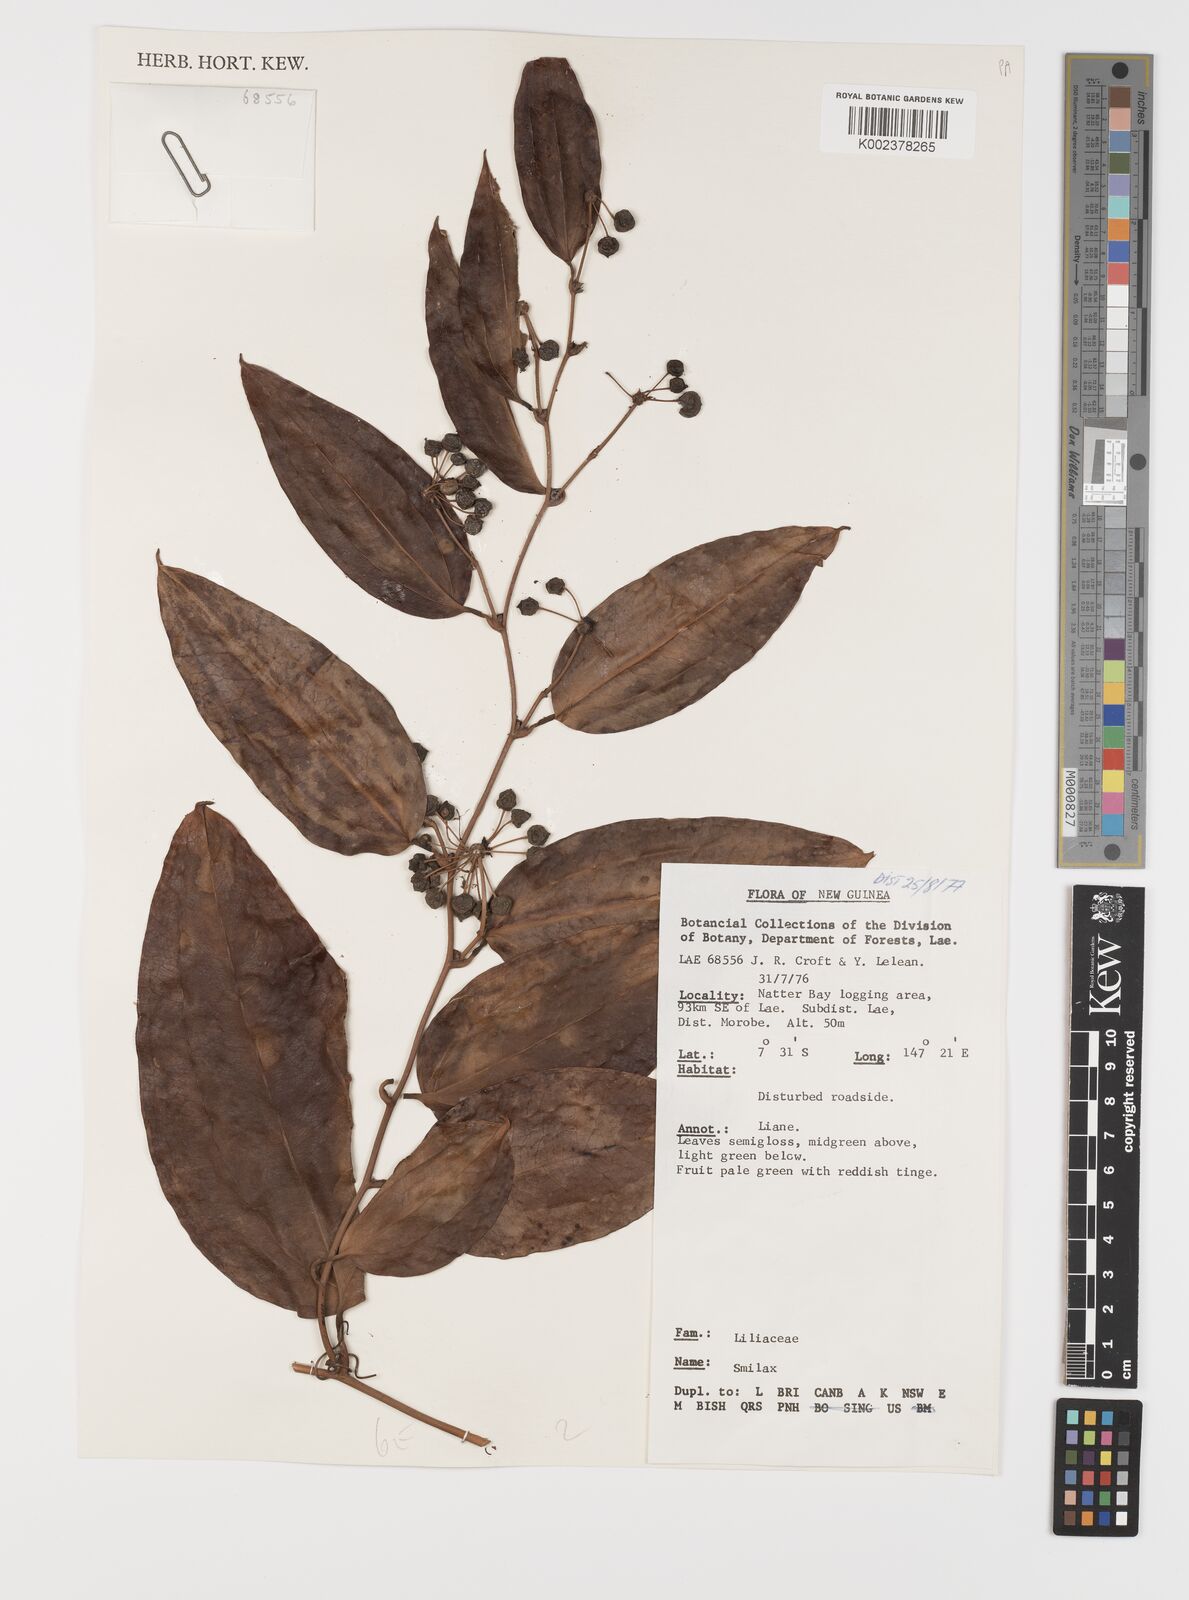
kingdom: Plantae
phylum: Tracheophyta
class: Liliopsida
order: Liliales
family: Smilacaceae
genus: Smilax
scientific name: Smilax
